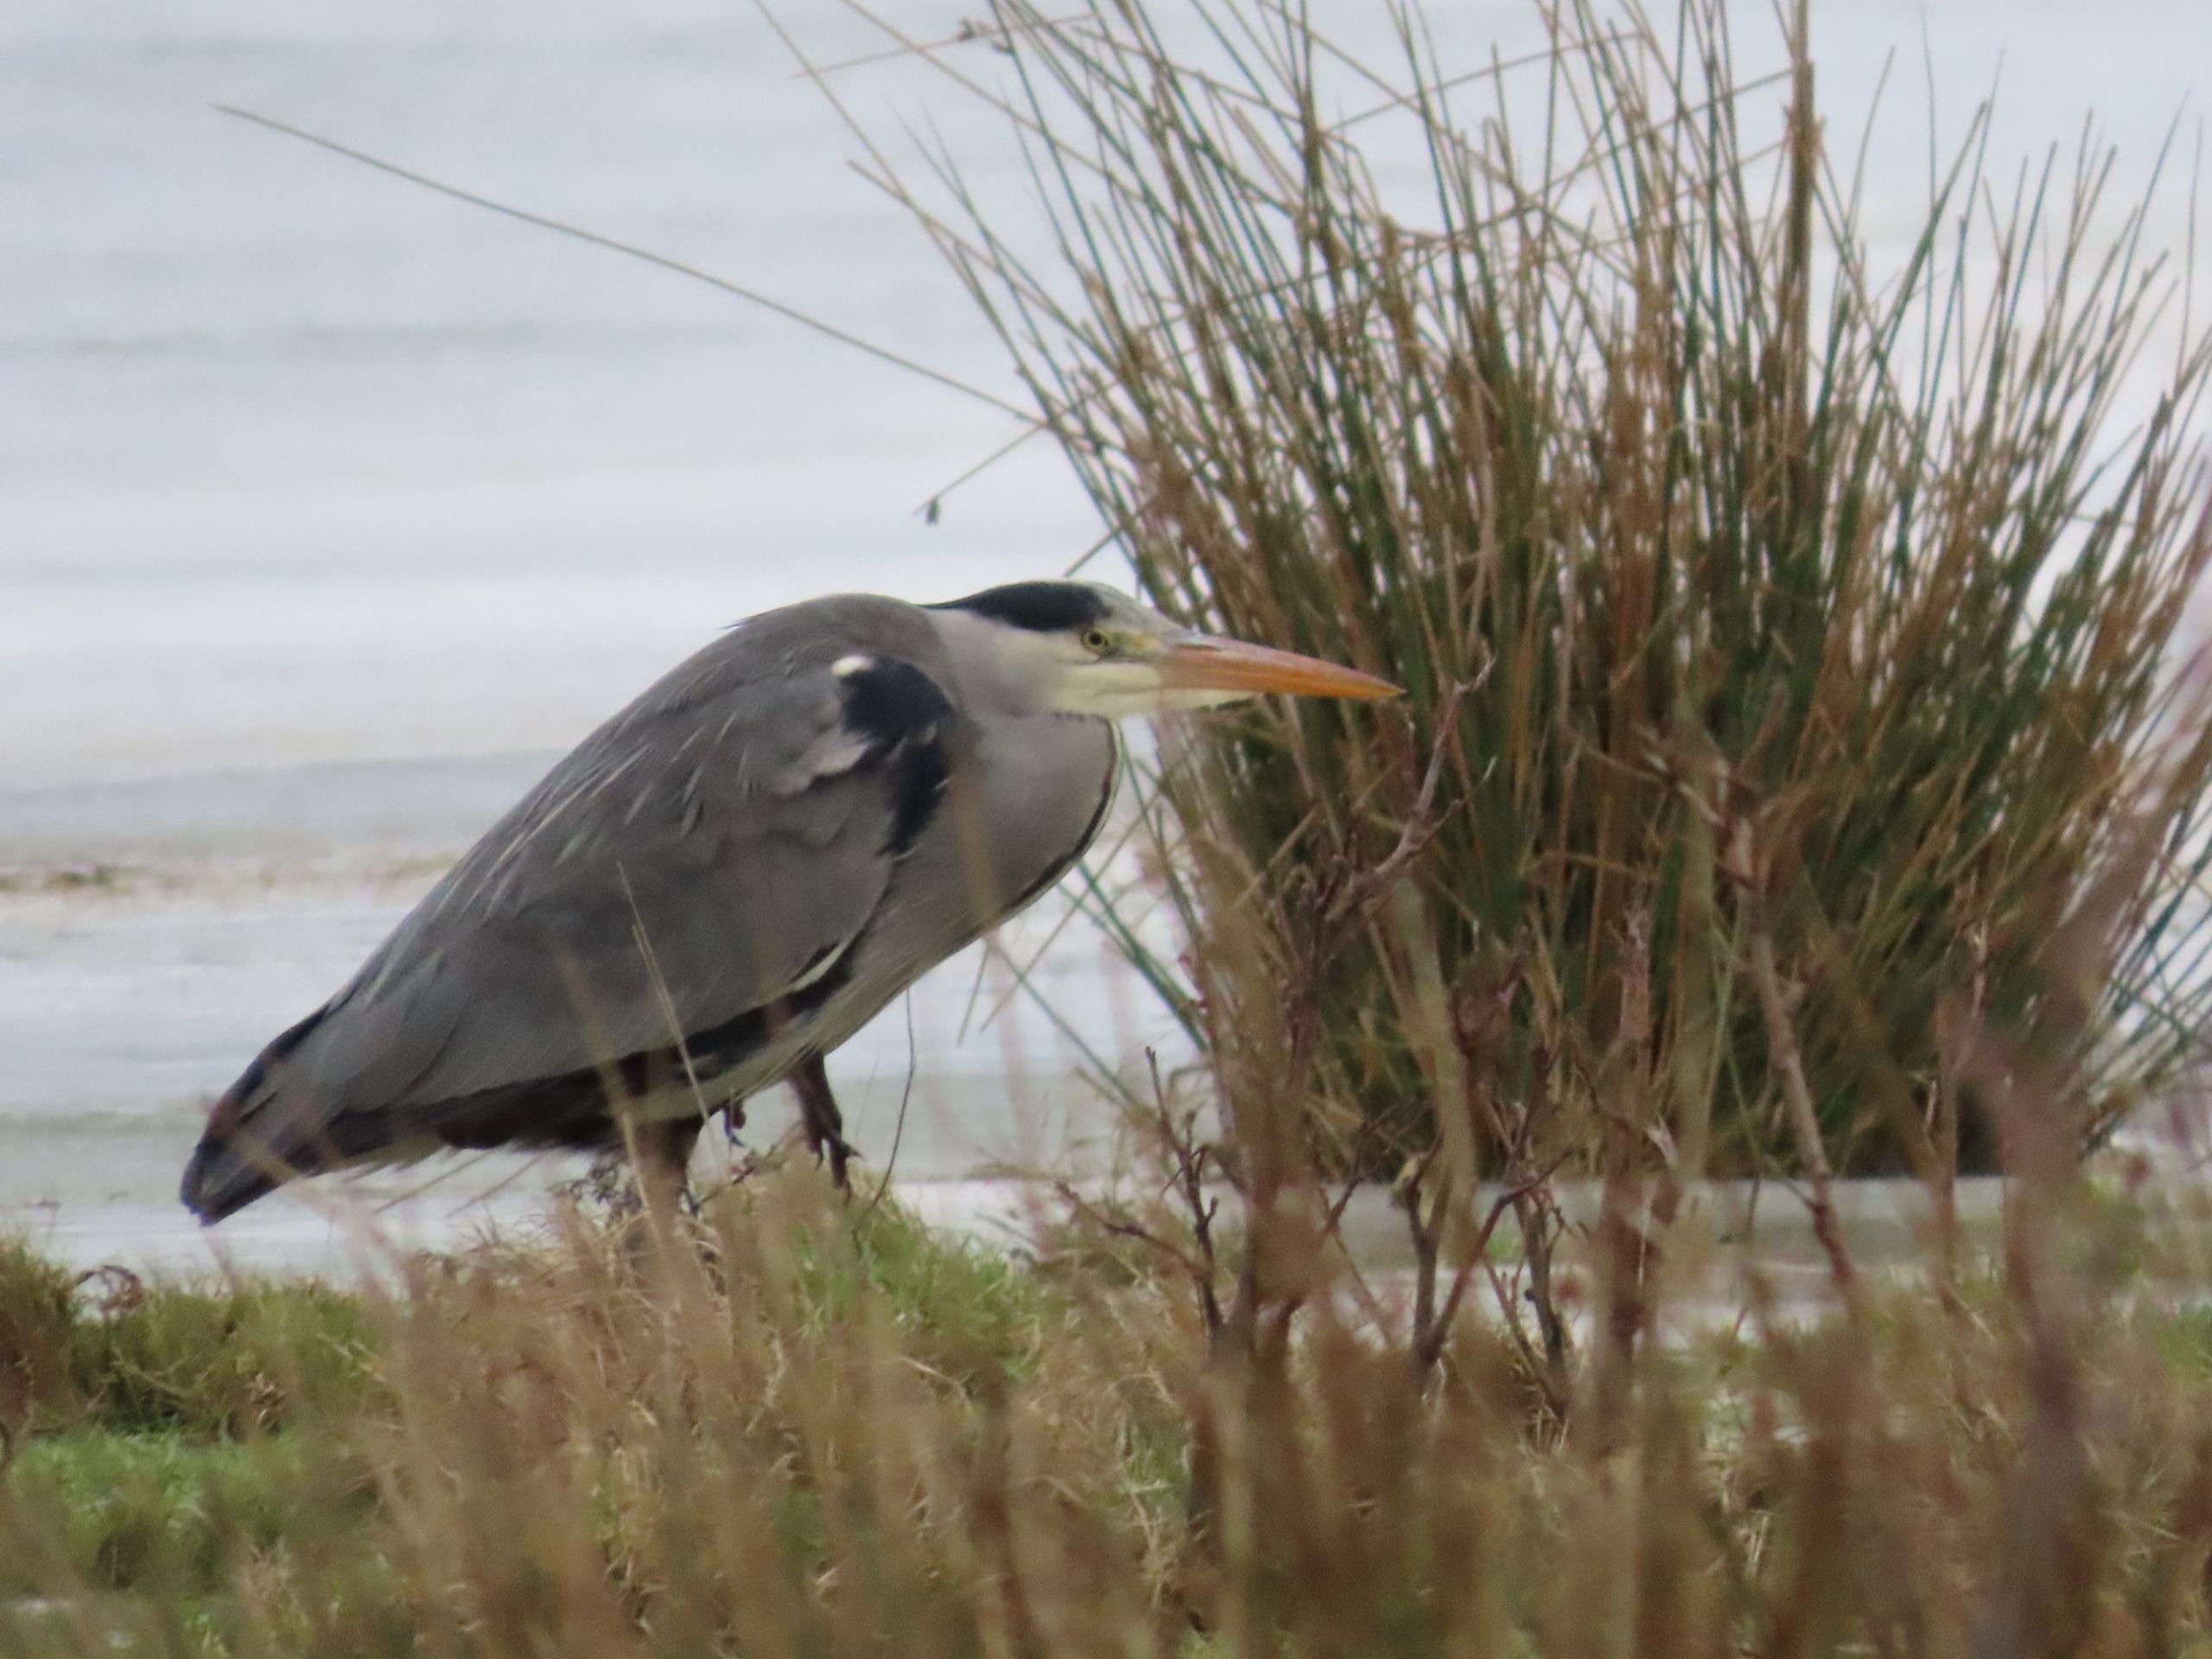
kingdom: Animalia
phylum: Chordata
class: Aves
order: Pelecaniformes
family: Ardeidae
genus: Ardea
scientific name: Ardea cinerea
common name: Fiskehejre
